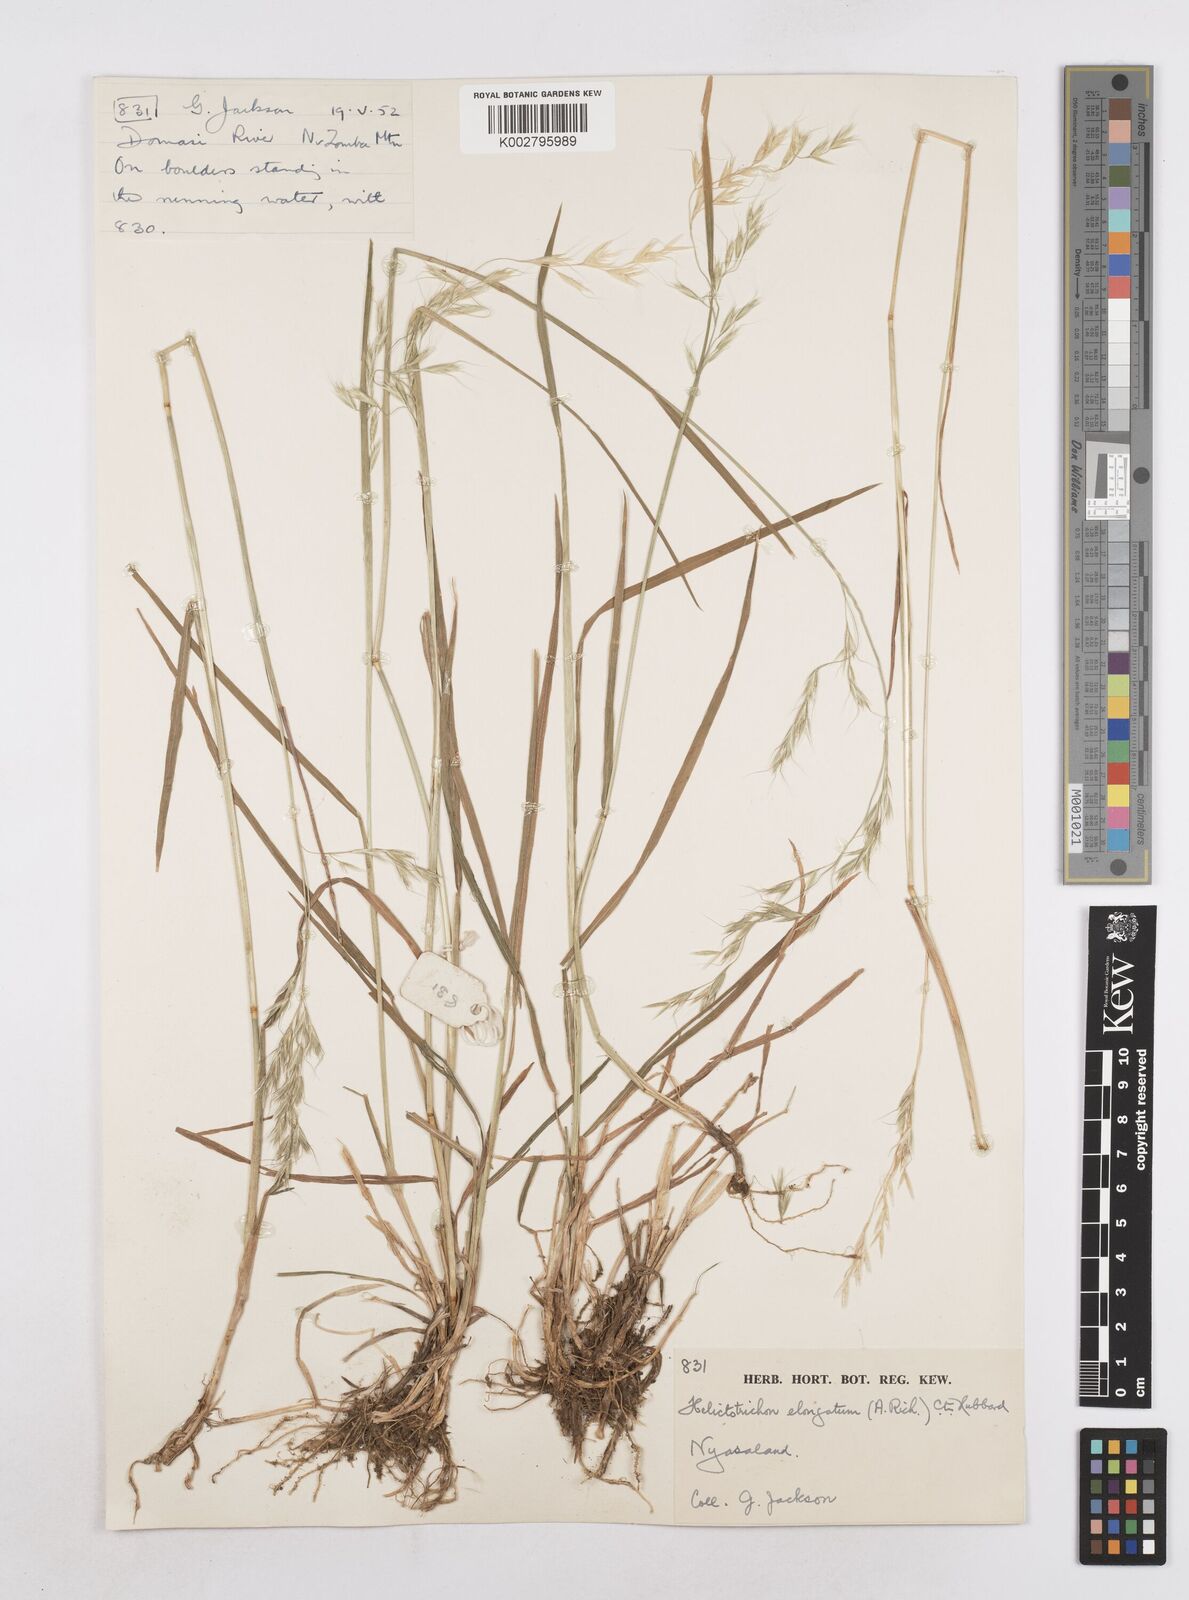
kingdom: Plantae
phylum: Tracheophyta
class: Liliopsida
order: Poales
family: Poaceae
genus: Trisetopsis
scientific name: Trisetopsis elongata
